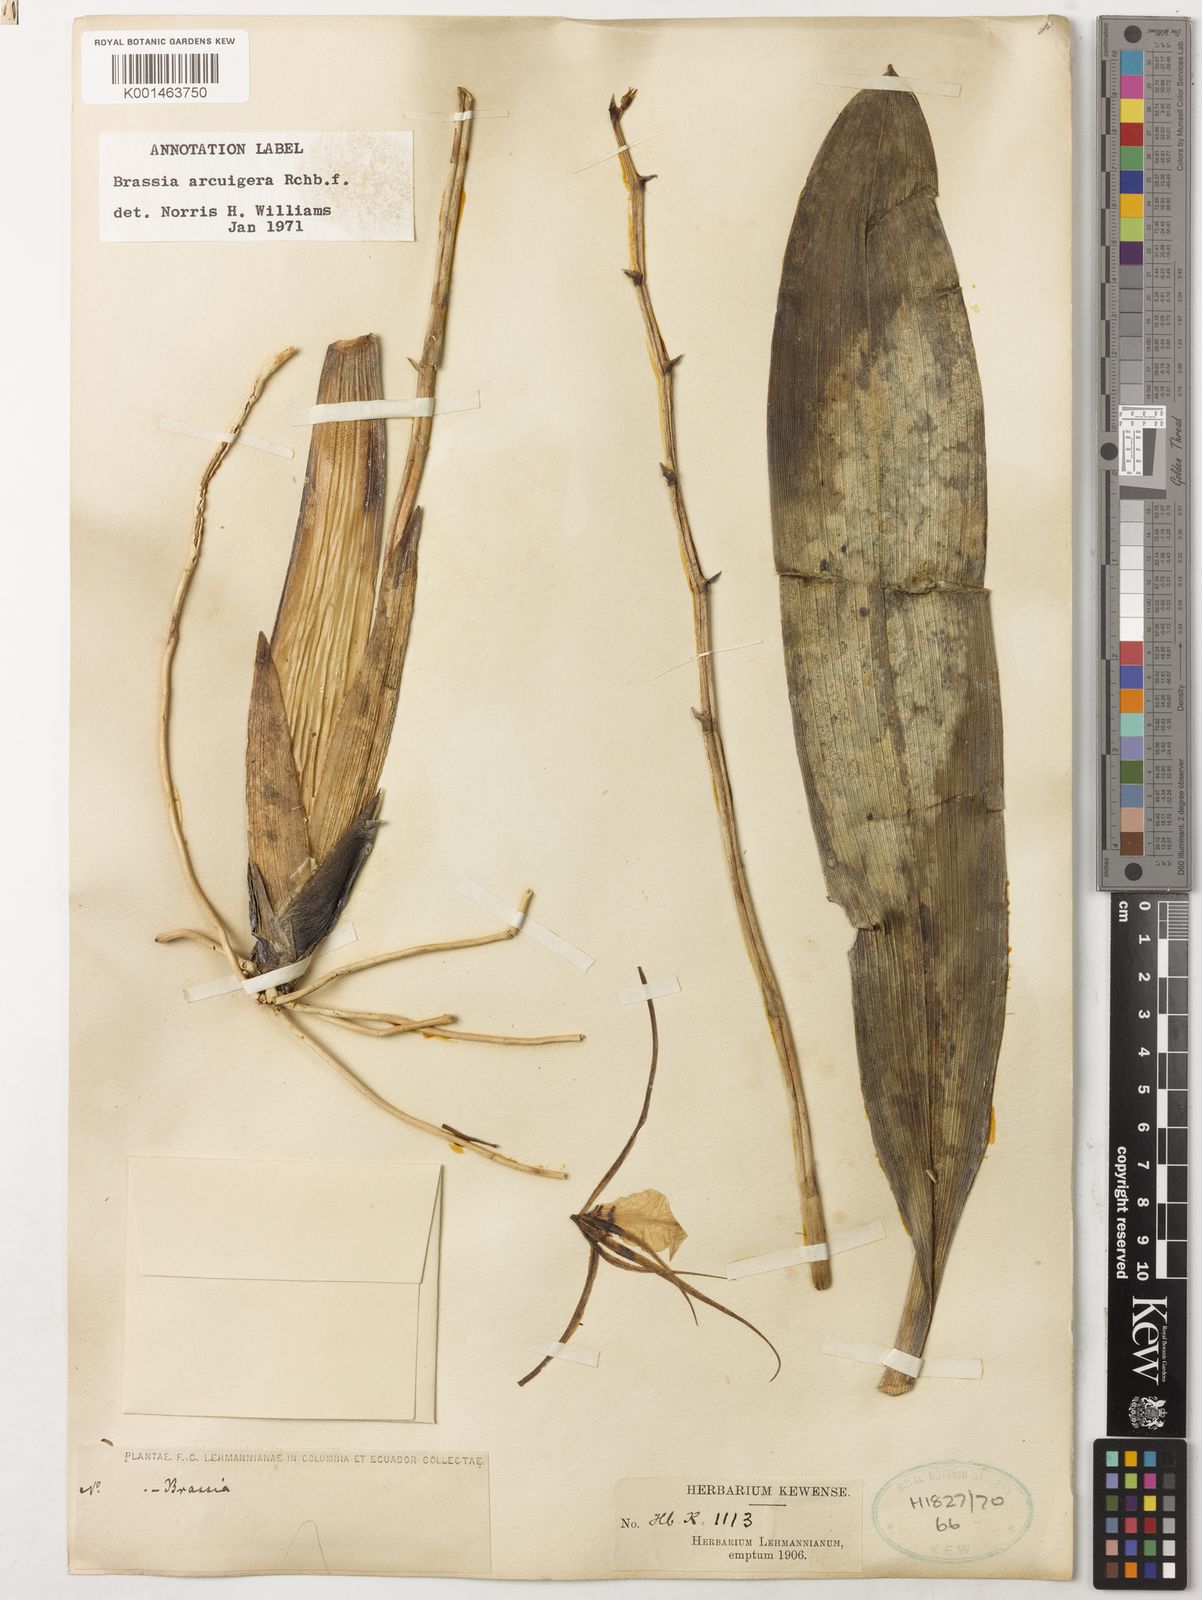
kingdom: Plantae
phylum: Tracheophyta
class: Liliopsida
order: Asparagales
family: Orchidaceae
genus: Brassia
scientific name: Brassia arcuigera
